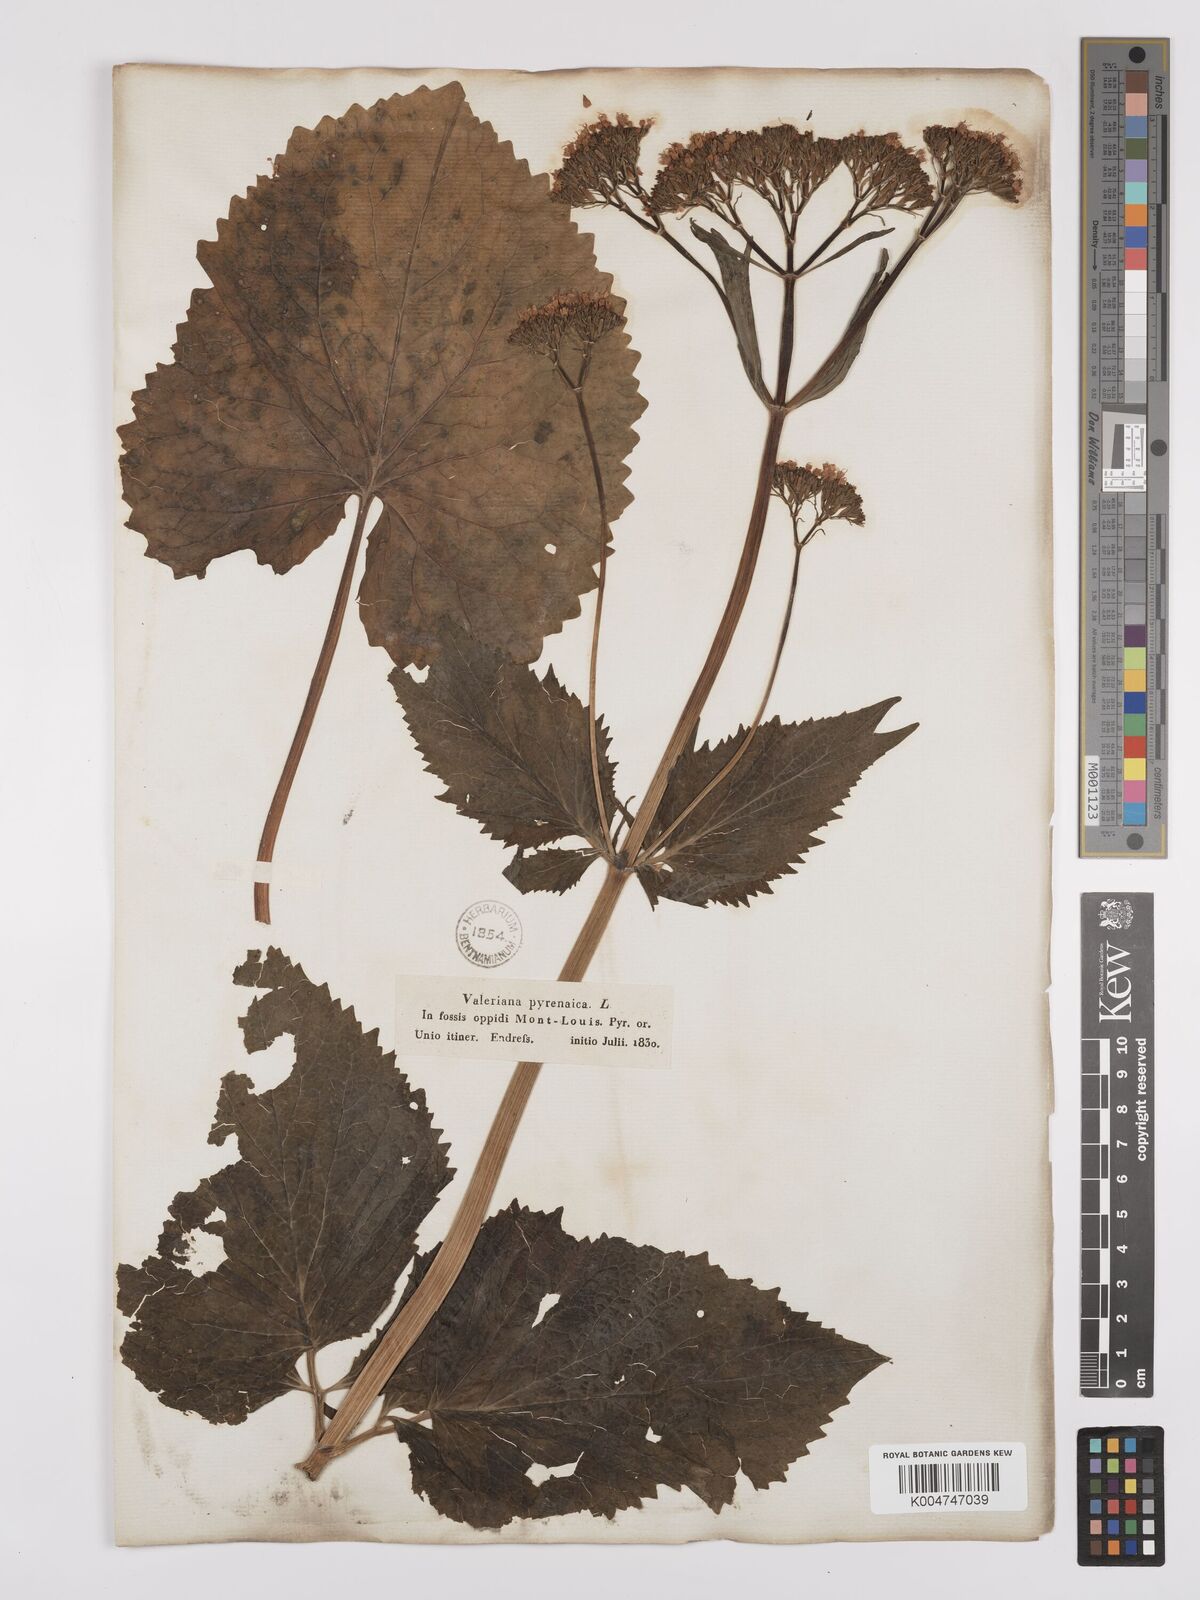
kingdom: Plantae
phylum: Tracheophyta
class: Magnoliopsida
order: Dipsacales
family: Caprifoliaceae
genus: Valeriana
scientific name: Valeriana pyrenaica
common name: Pyrenean valerian
